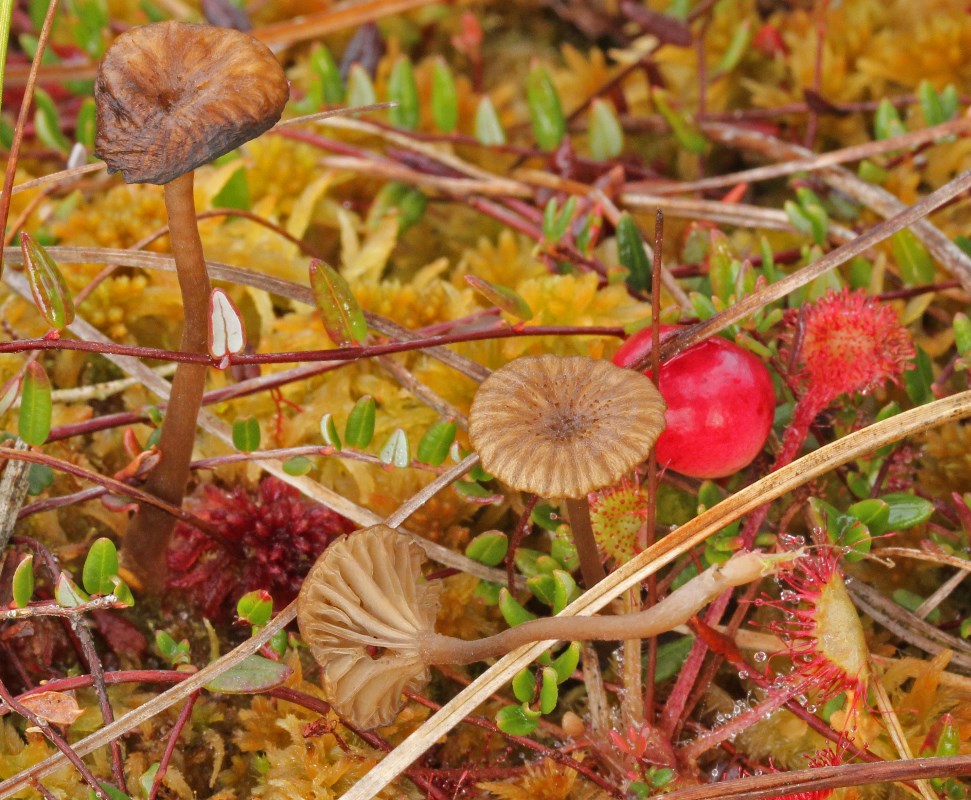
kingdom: Fungi
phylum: Basidiomycota
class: Agaricomycetes
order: Agaricales
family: Hygrophoraceae
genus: Arrhenia
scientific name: Arrhenia gerardiana
